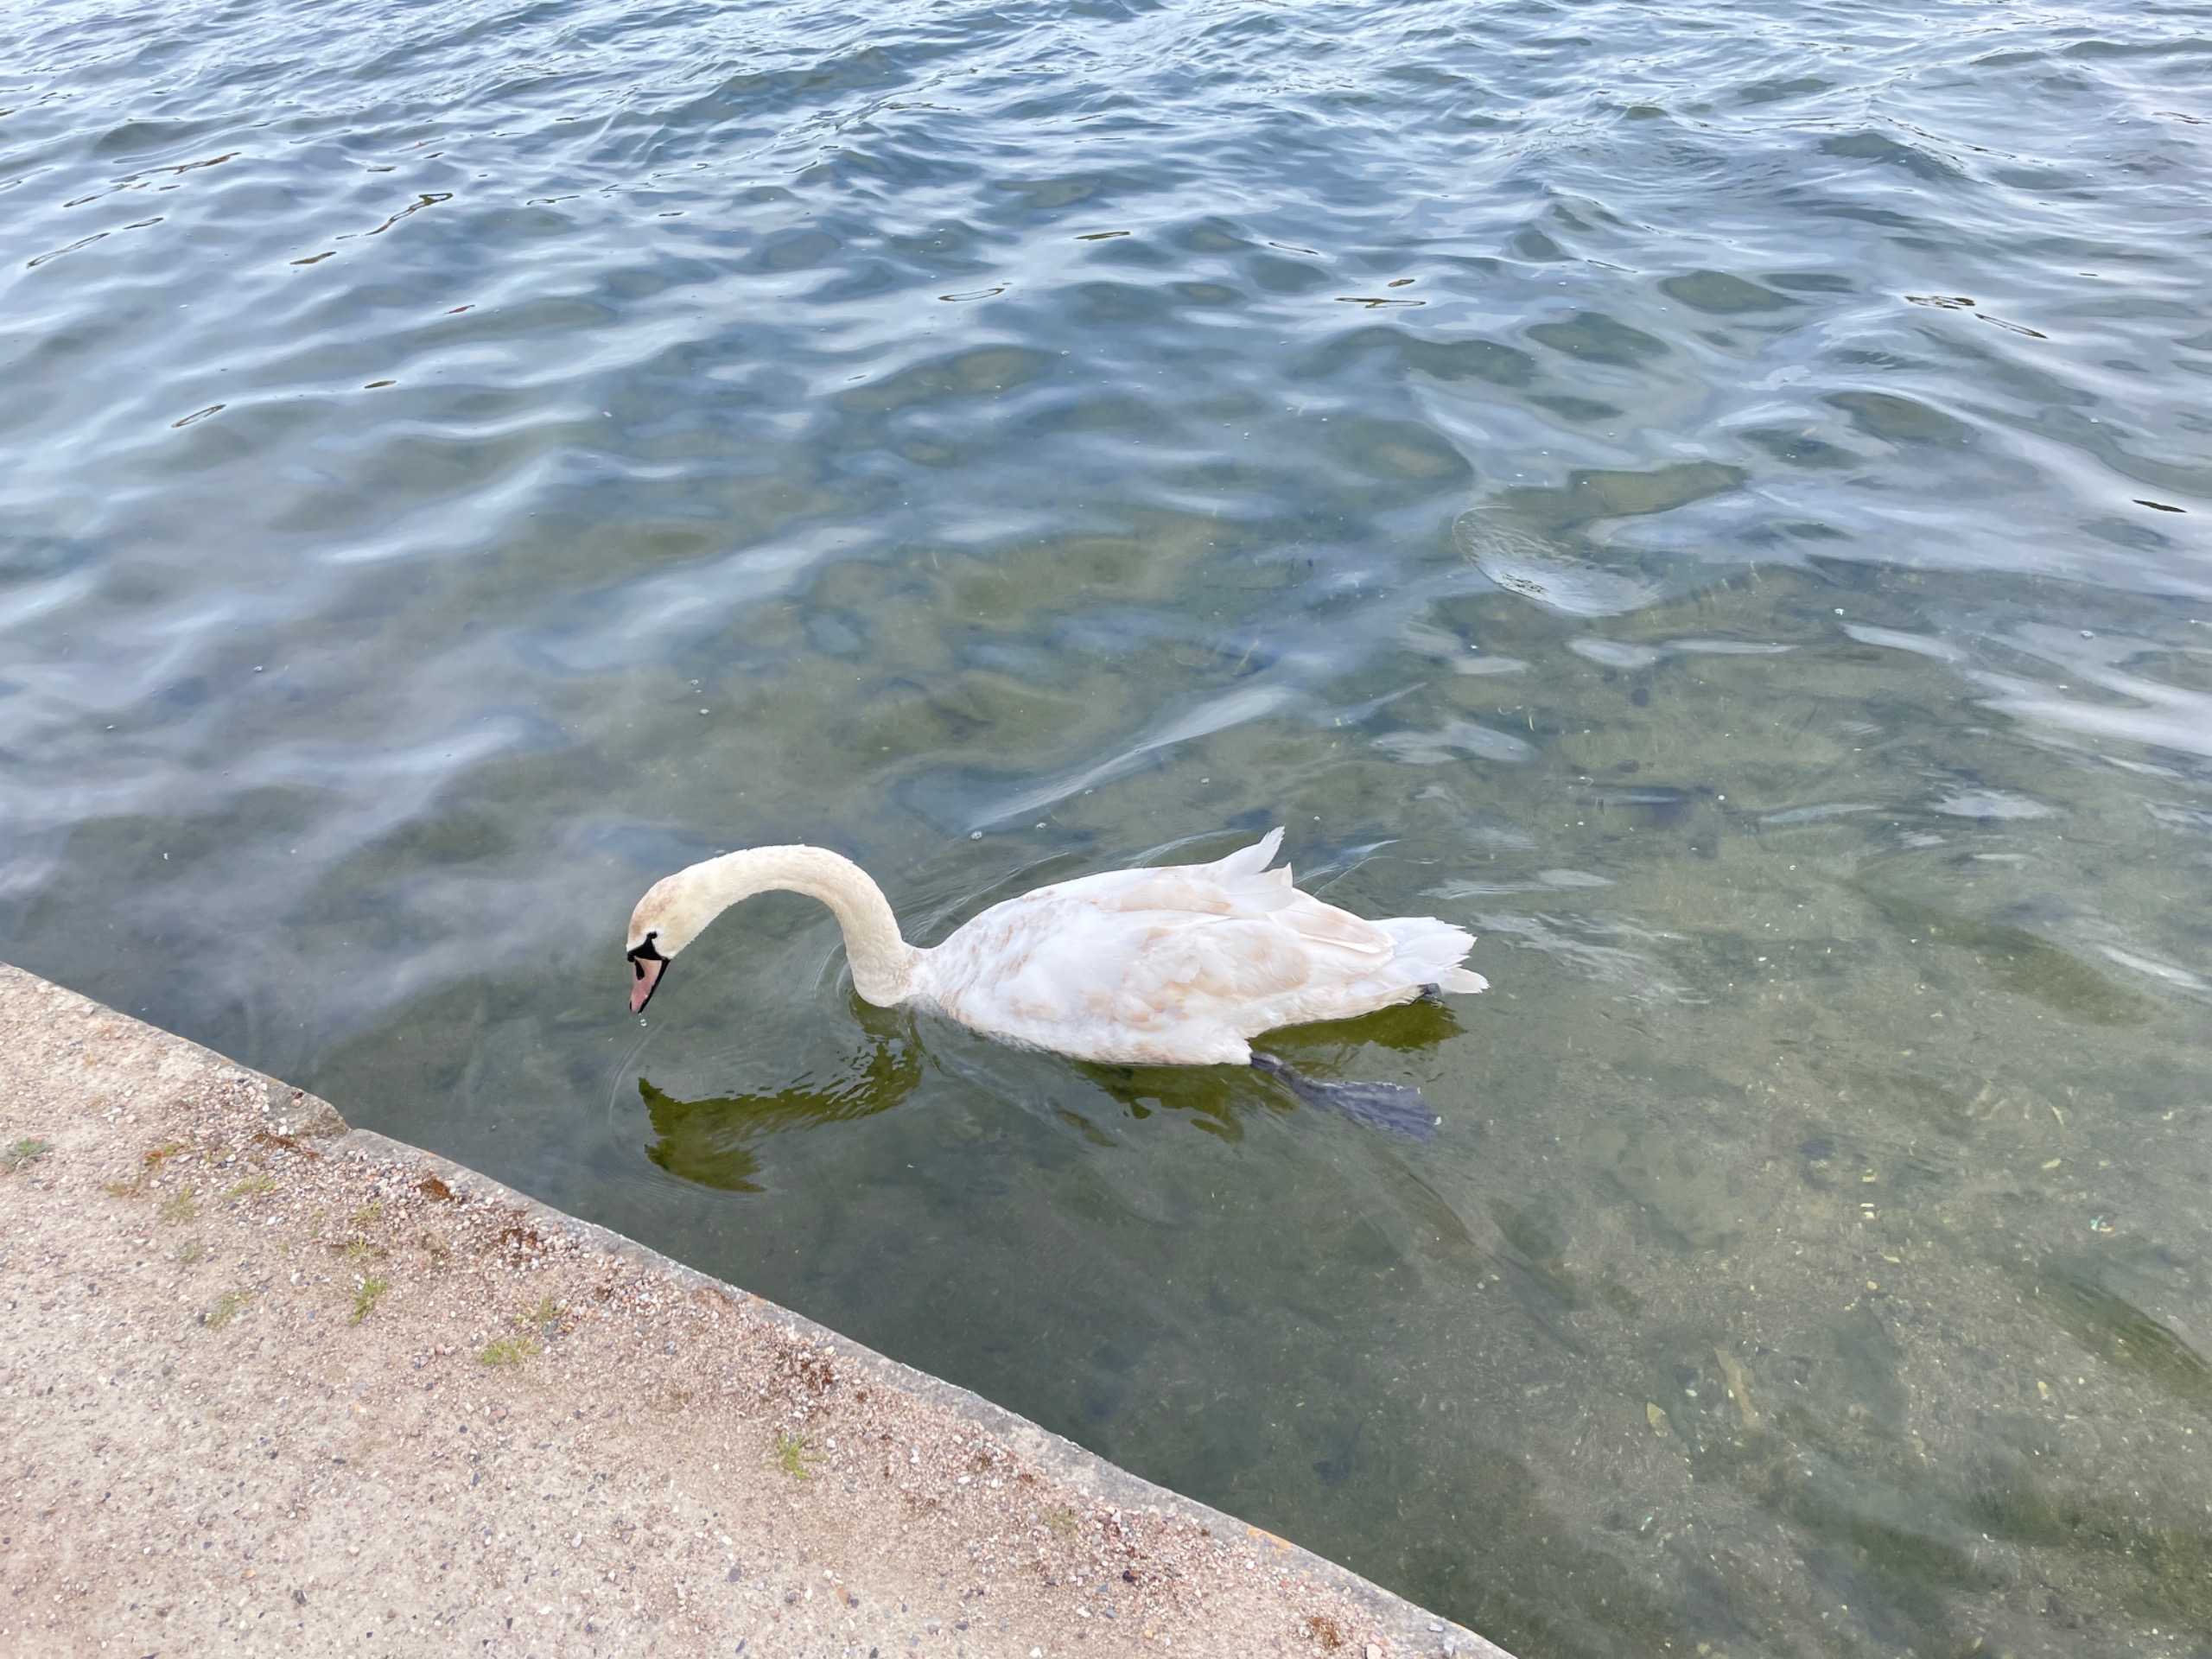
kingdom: Animalia
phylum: Chordata
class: Aves
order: Anseriformes
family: Anatidae
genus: Cygnus
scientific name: Cygnus olor
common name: Knopsvane
